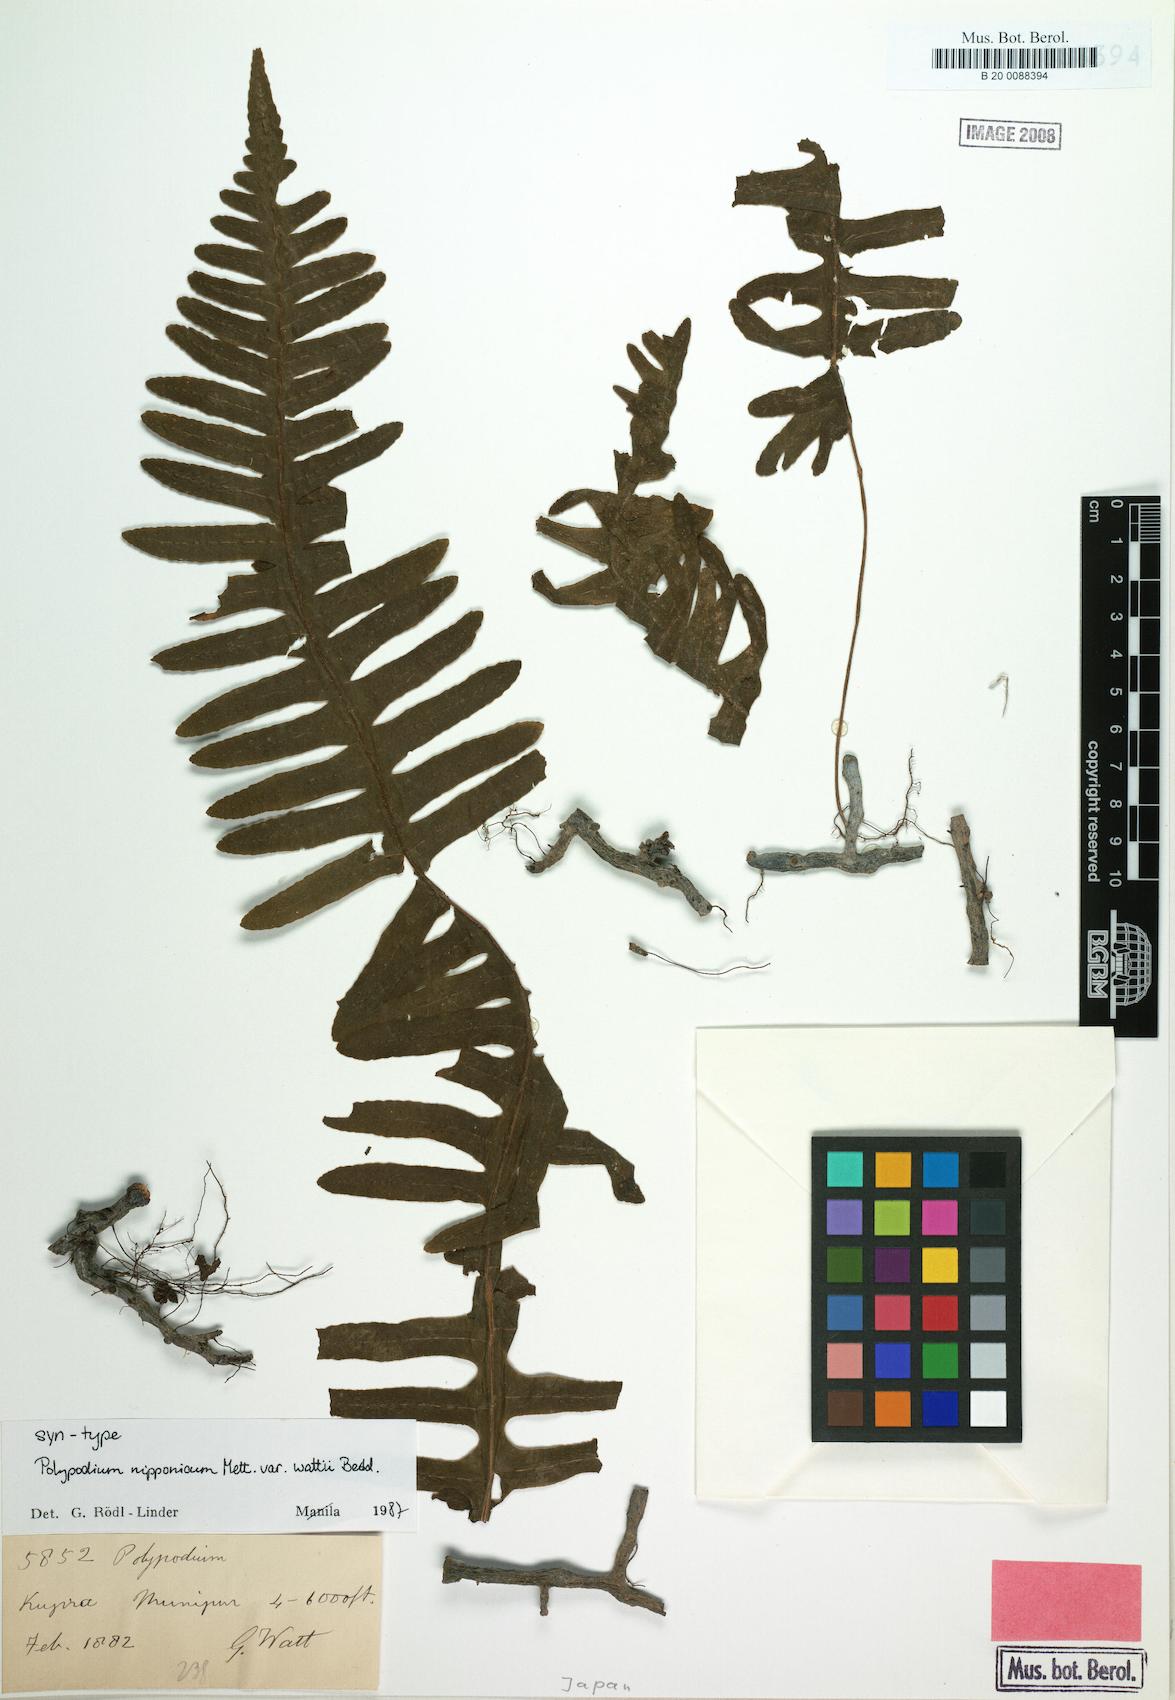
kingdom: Plantae
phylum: Tracheophyta
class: Polypodiopsida
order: Polypodiales
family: Polypodiaceae
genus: Goniophlebium
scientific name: Goniophlebium wattii
